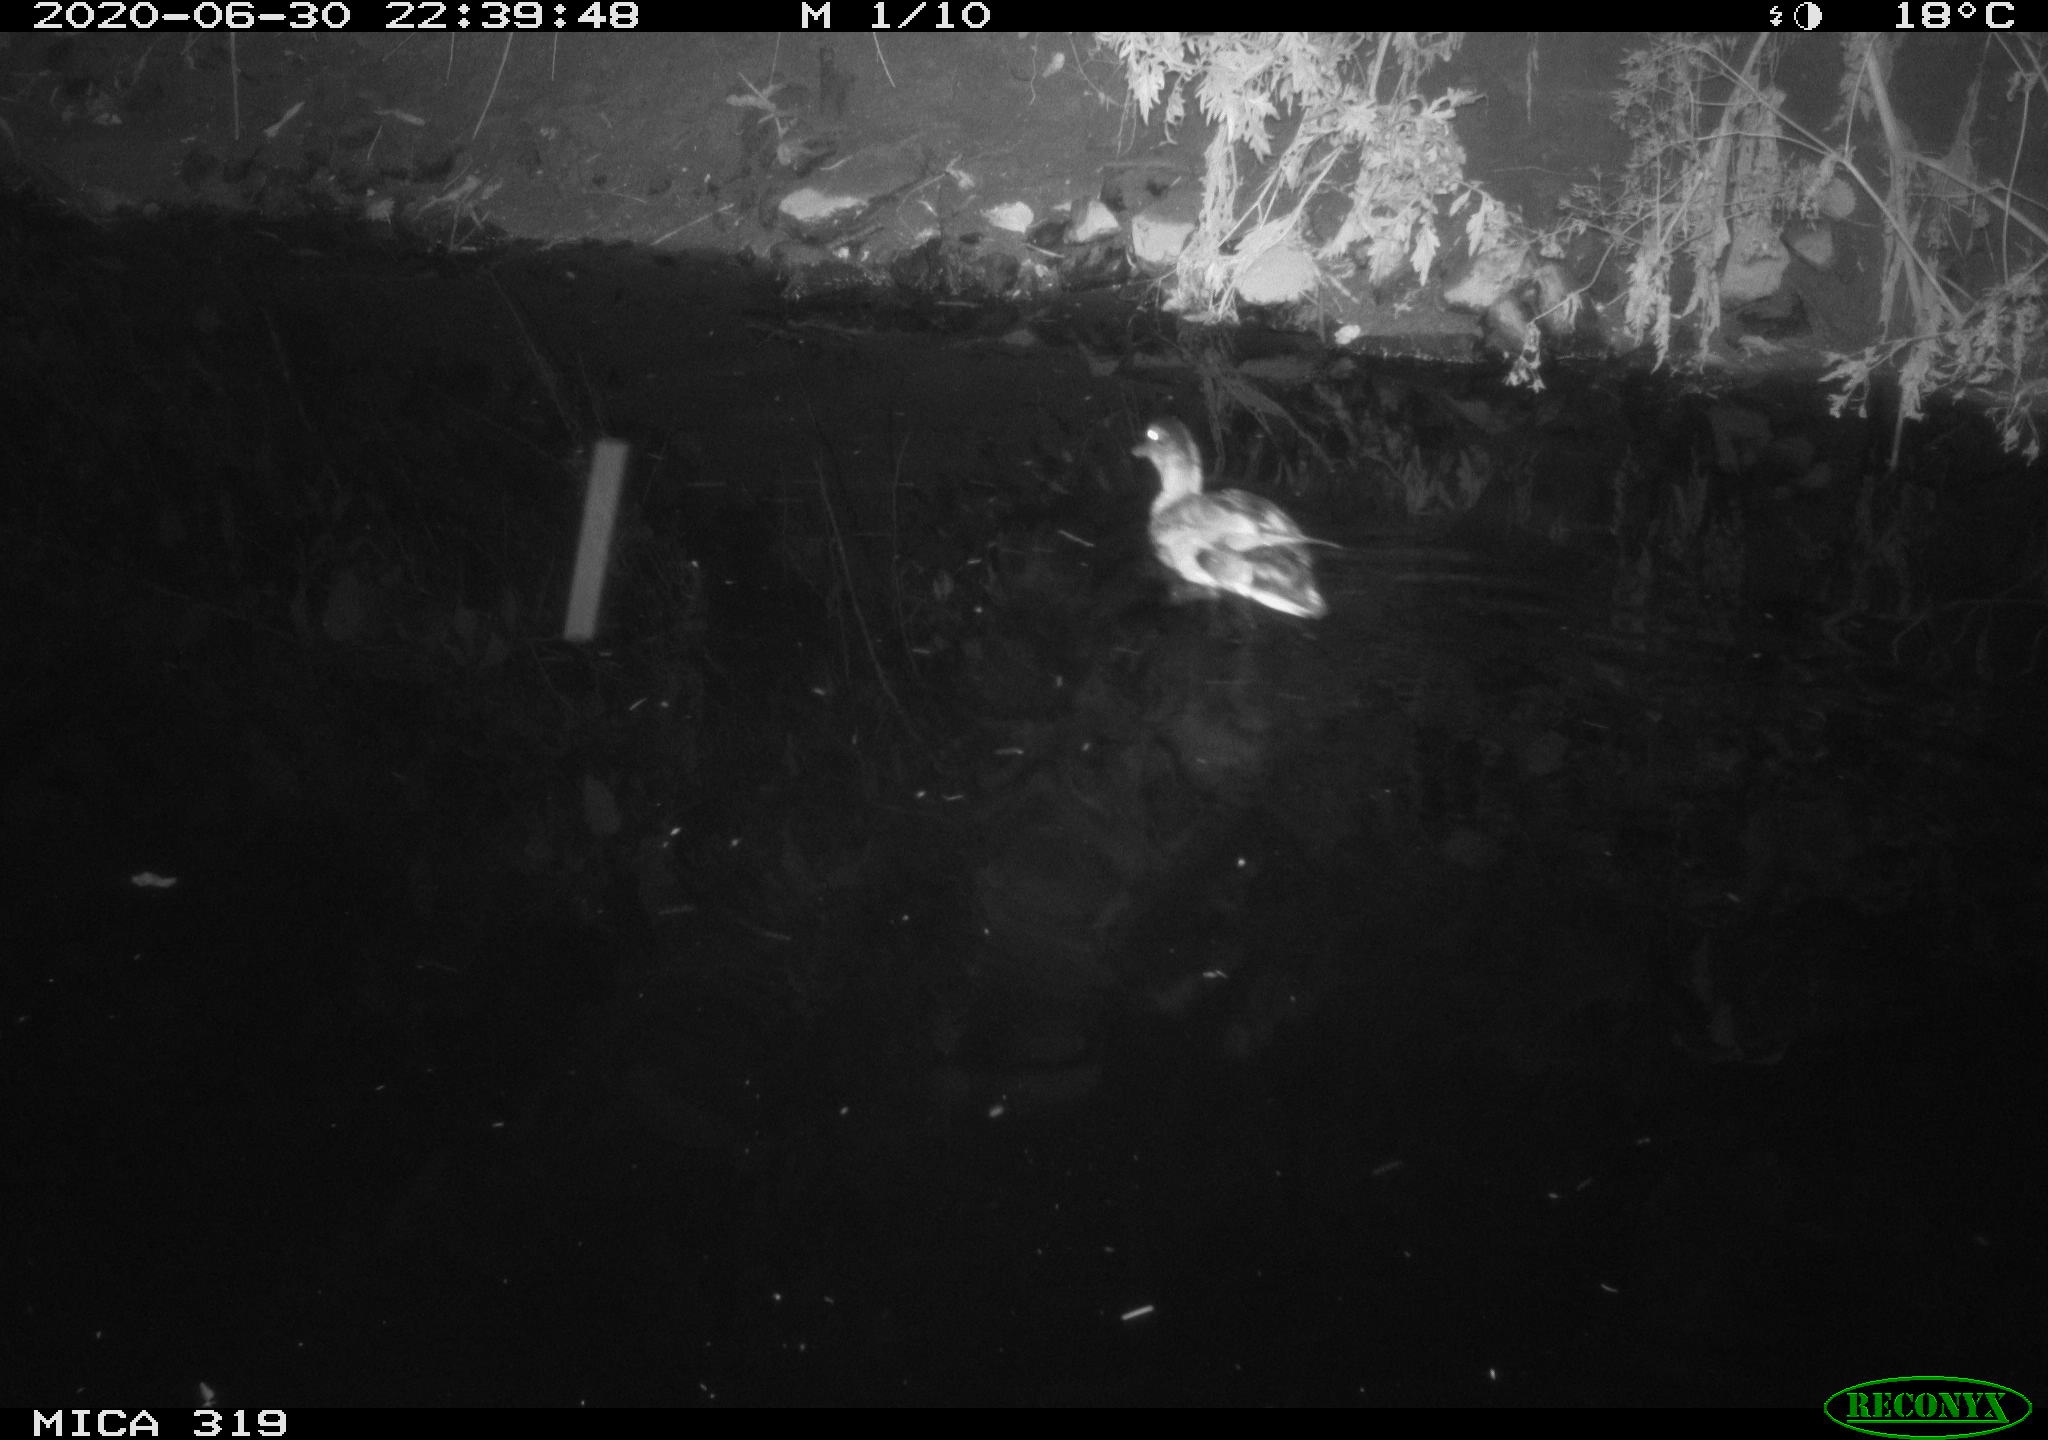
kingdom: Animalia
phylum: Chordata
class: Aves
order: Anseriformes
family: Anatidae
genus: Anas
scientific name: Anas platyrhynchos
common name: Mallard
